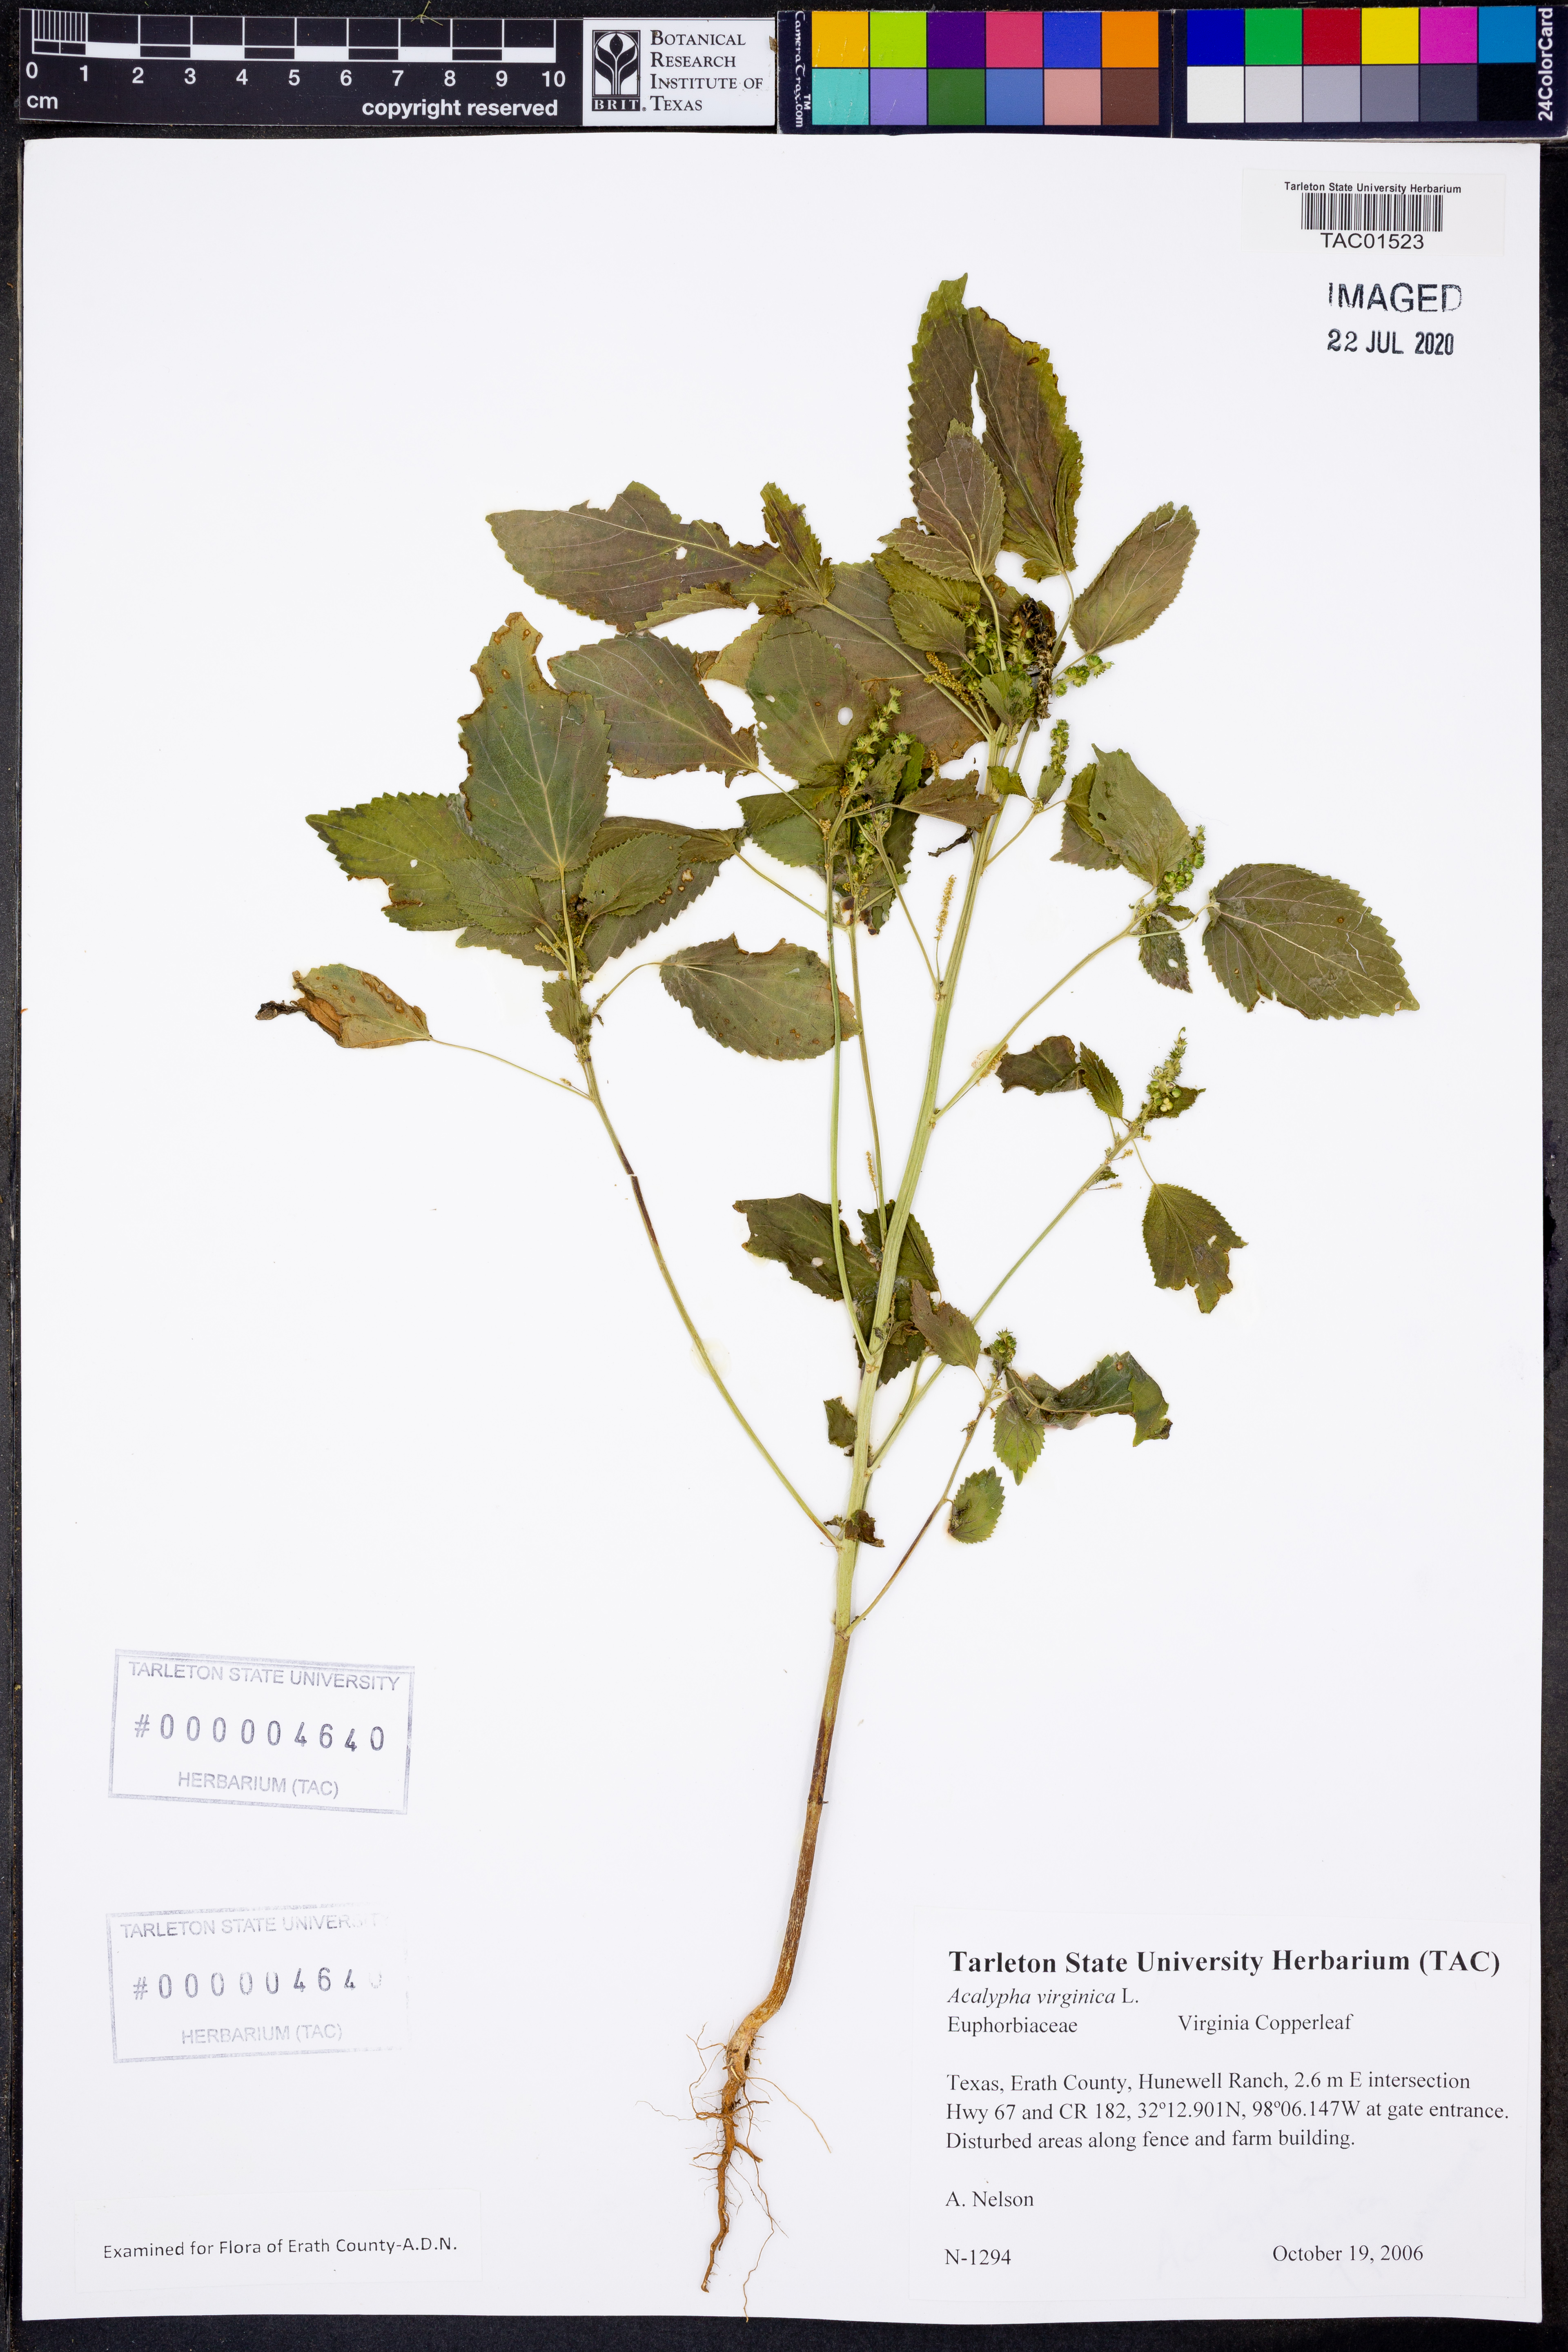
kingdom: Plantae
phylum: Tracheophyta
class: Magnoliopsida
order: Malpighiales
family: Euphorbiaceae
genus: Acalypha
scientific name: Acalypha virginica
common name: Virginia copperleaf
